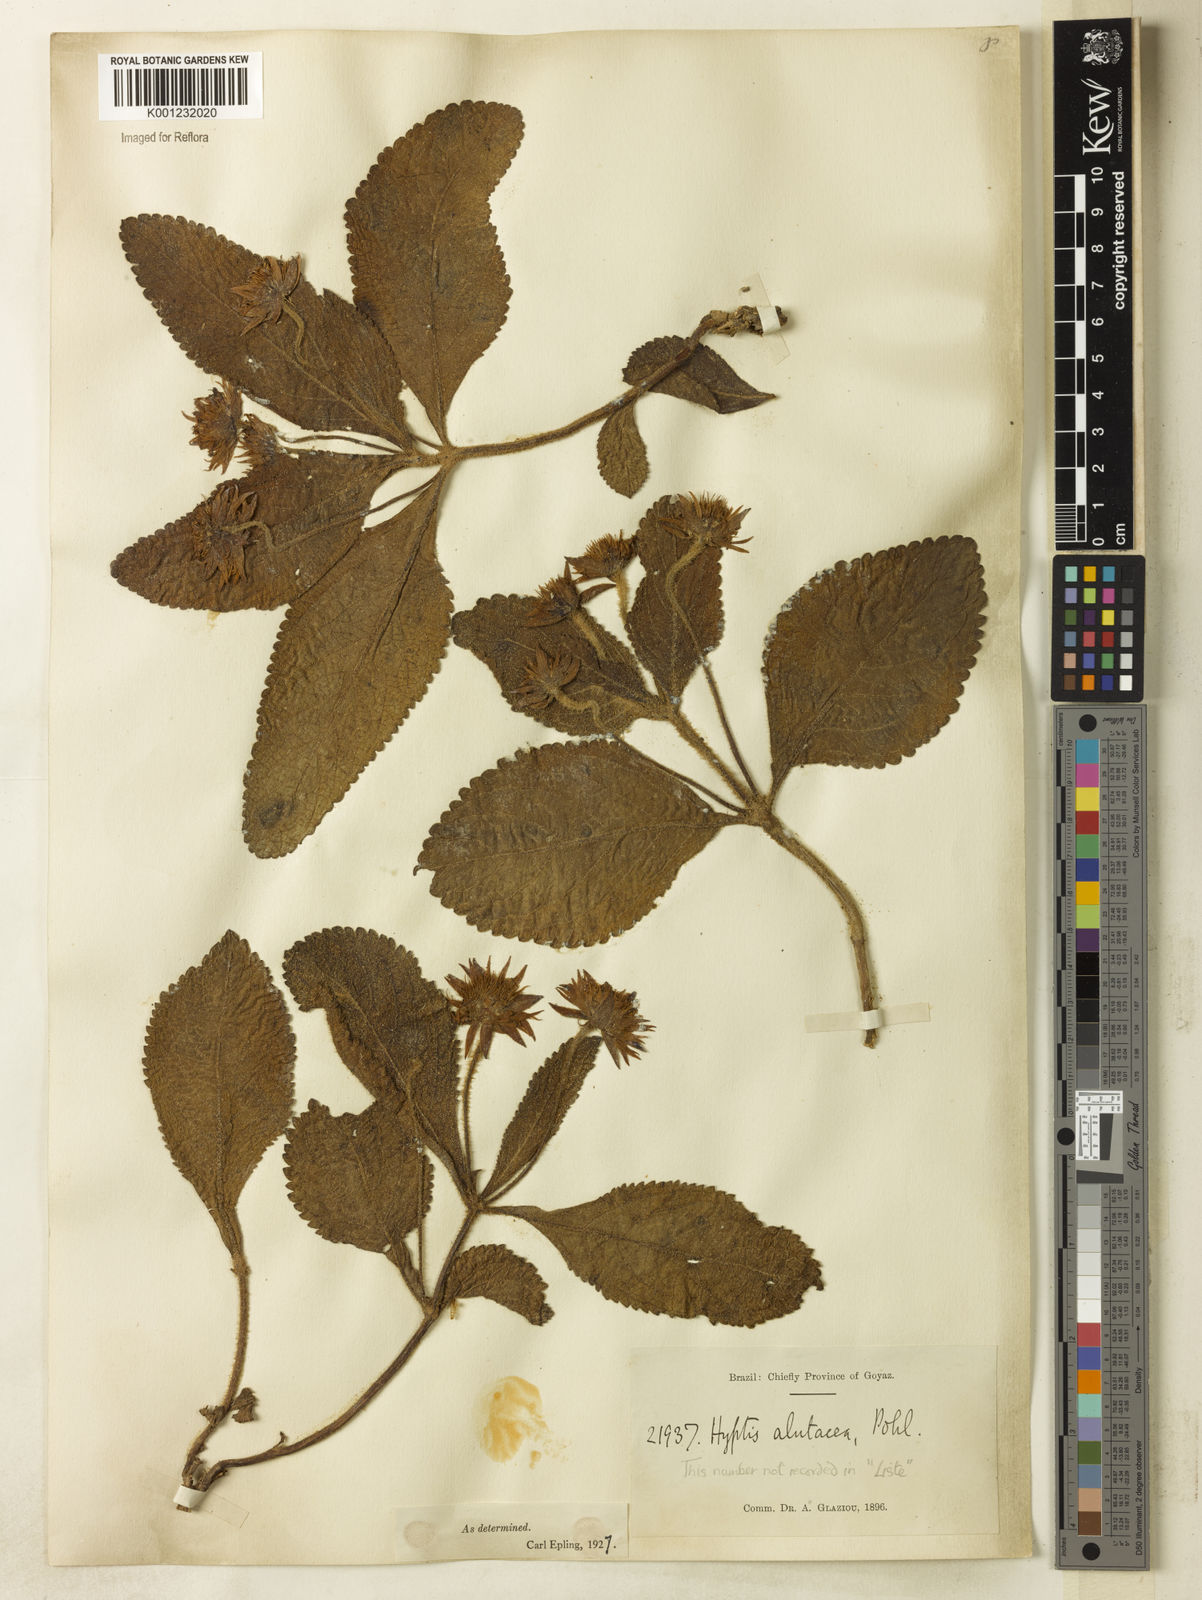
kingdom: Plantae
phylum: Tracheophyta
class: Magnoliopsida
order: Lamiales
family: Lamiaceae
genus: Hyptis
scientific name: Hyptis alutacea
